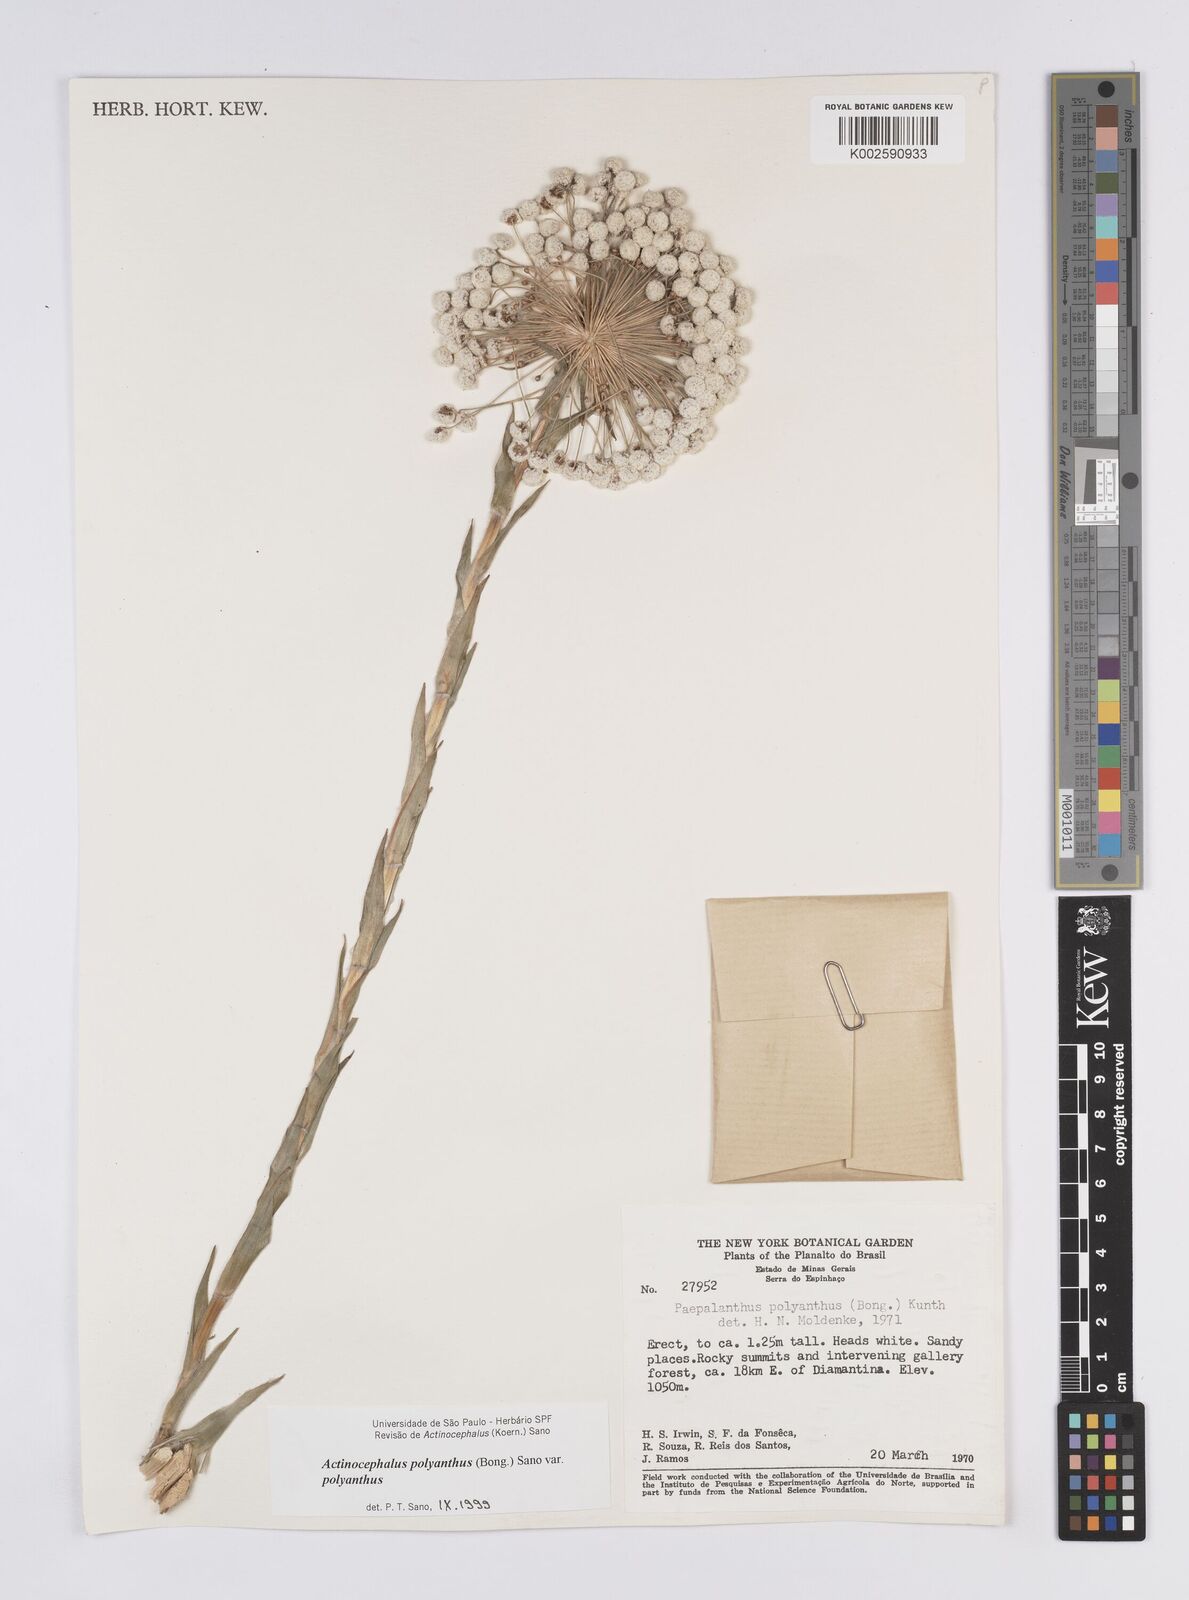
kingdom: Plantae
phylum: Tracheophyta
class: Liliopsida
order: Poales
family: Eriocaulaceae
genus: Paepalanthus
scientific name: Paepalanthus polyanthus
